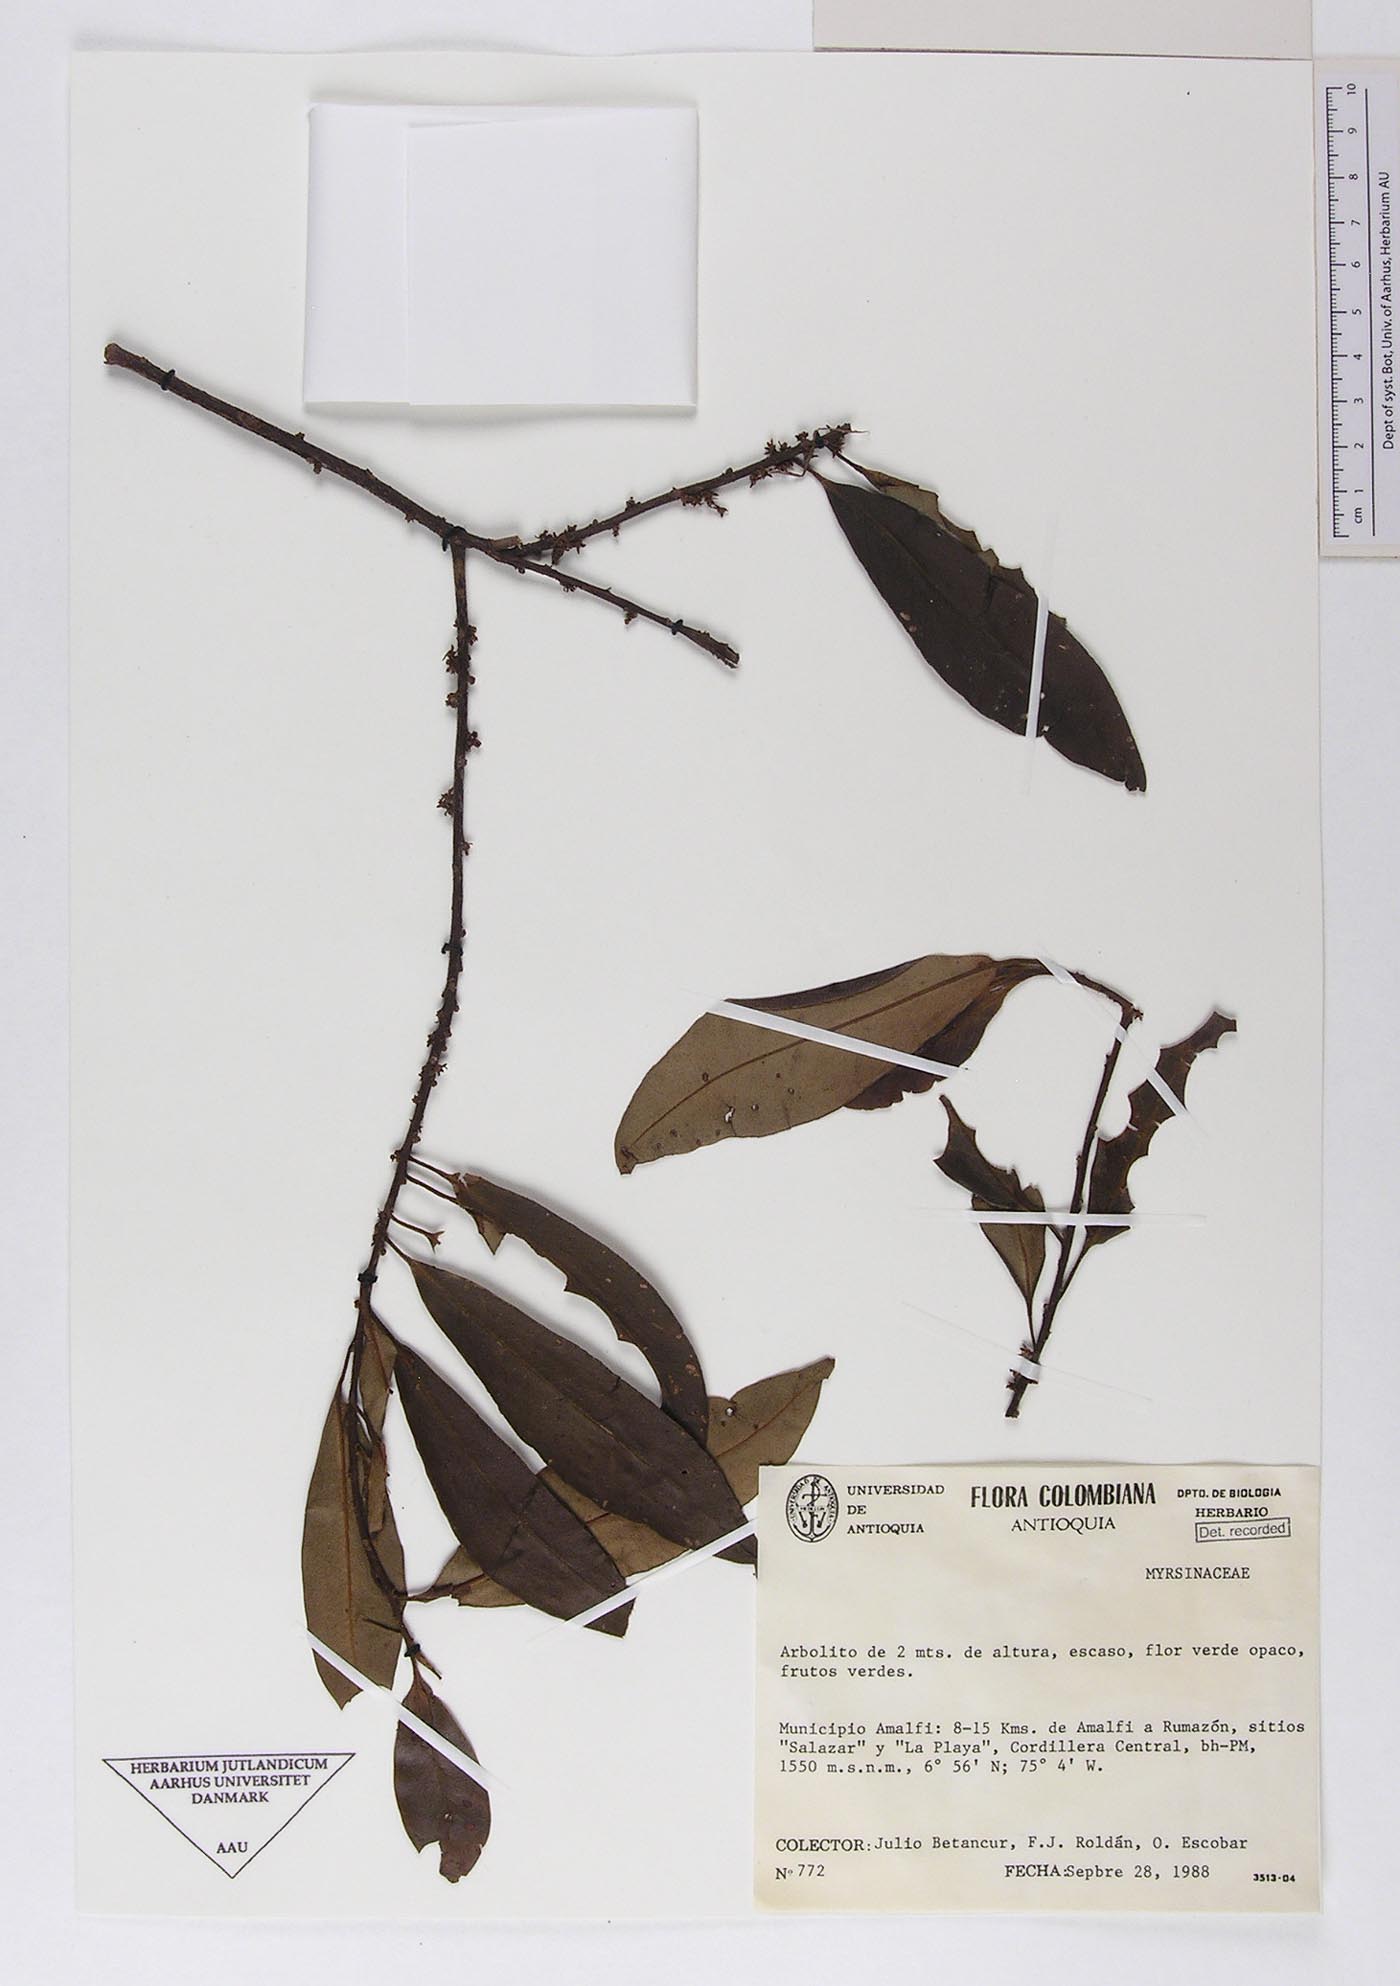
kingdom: Plantae
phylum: Tracheophyta
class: Magnoliopsida
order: Ericales
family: Primulaceae
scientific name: Primulaceae
